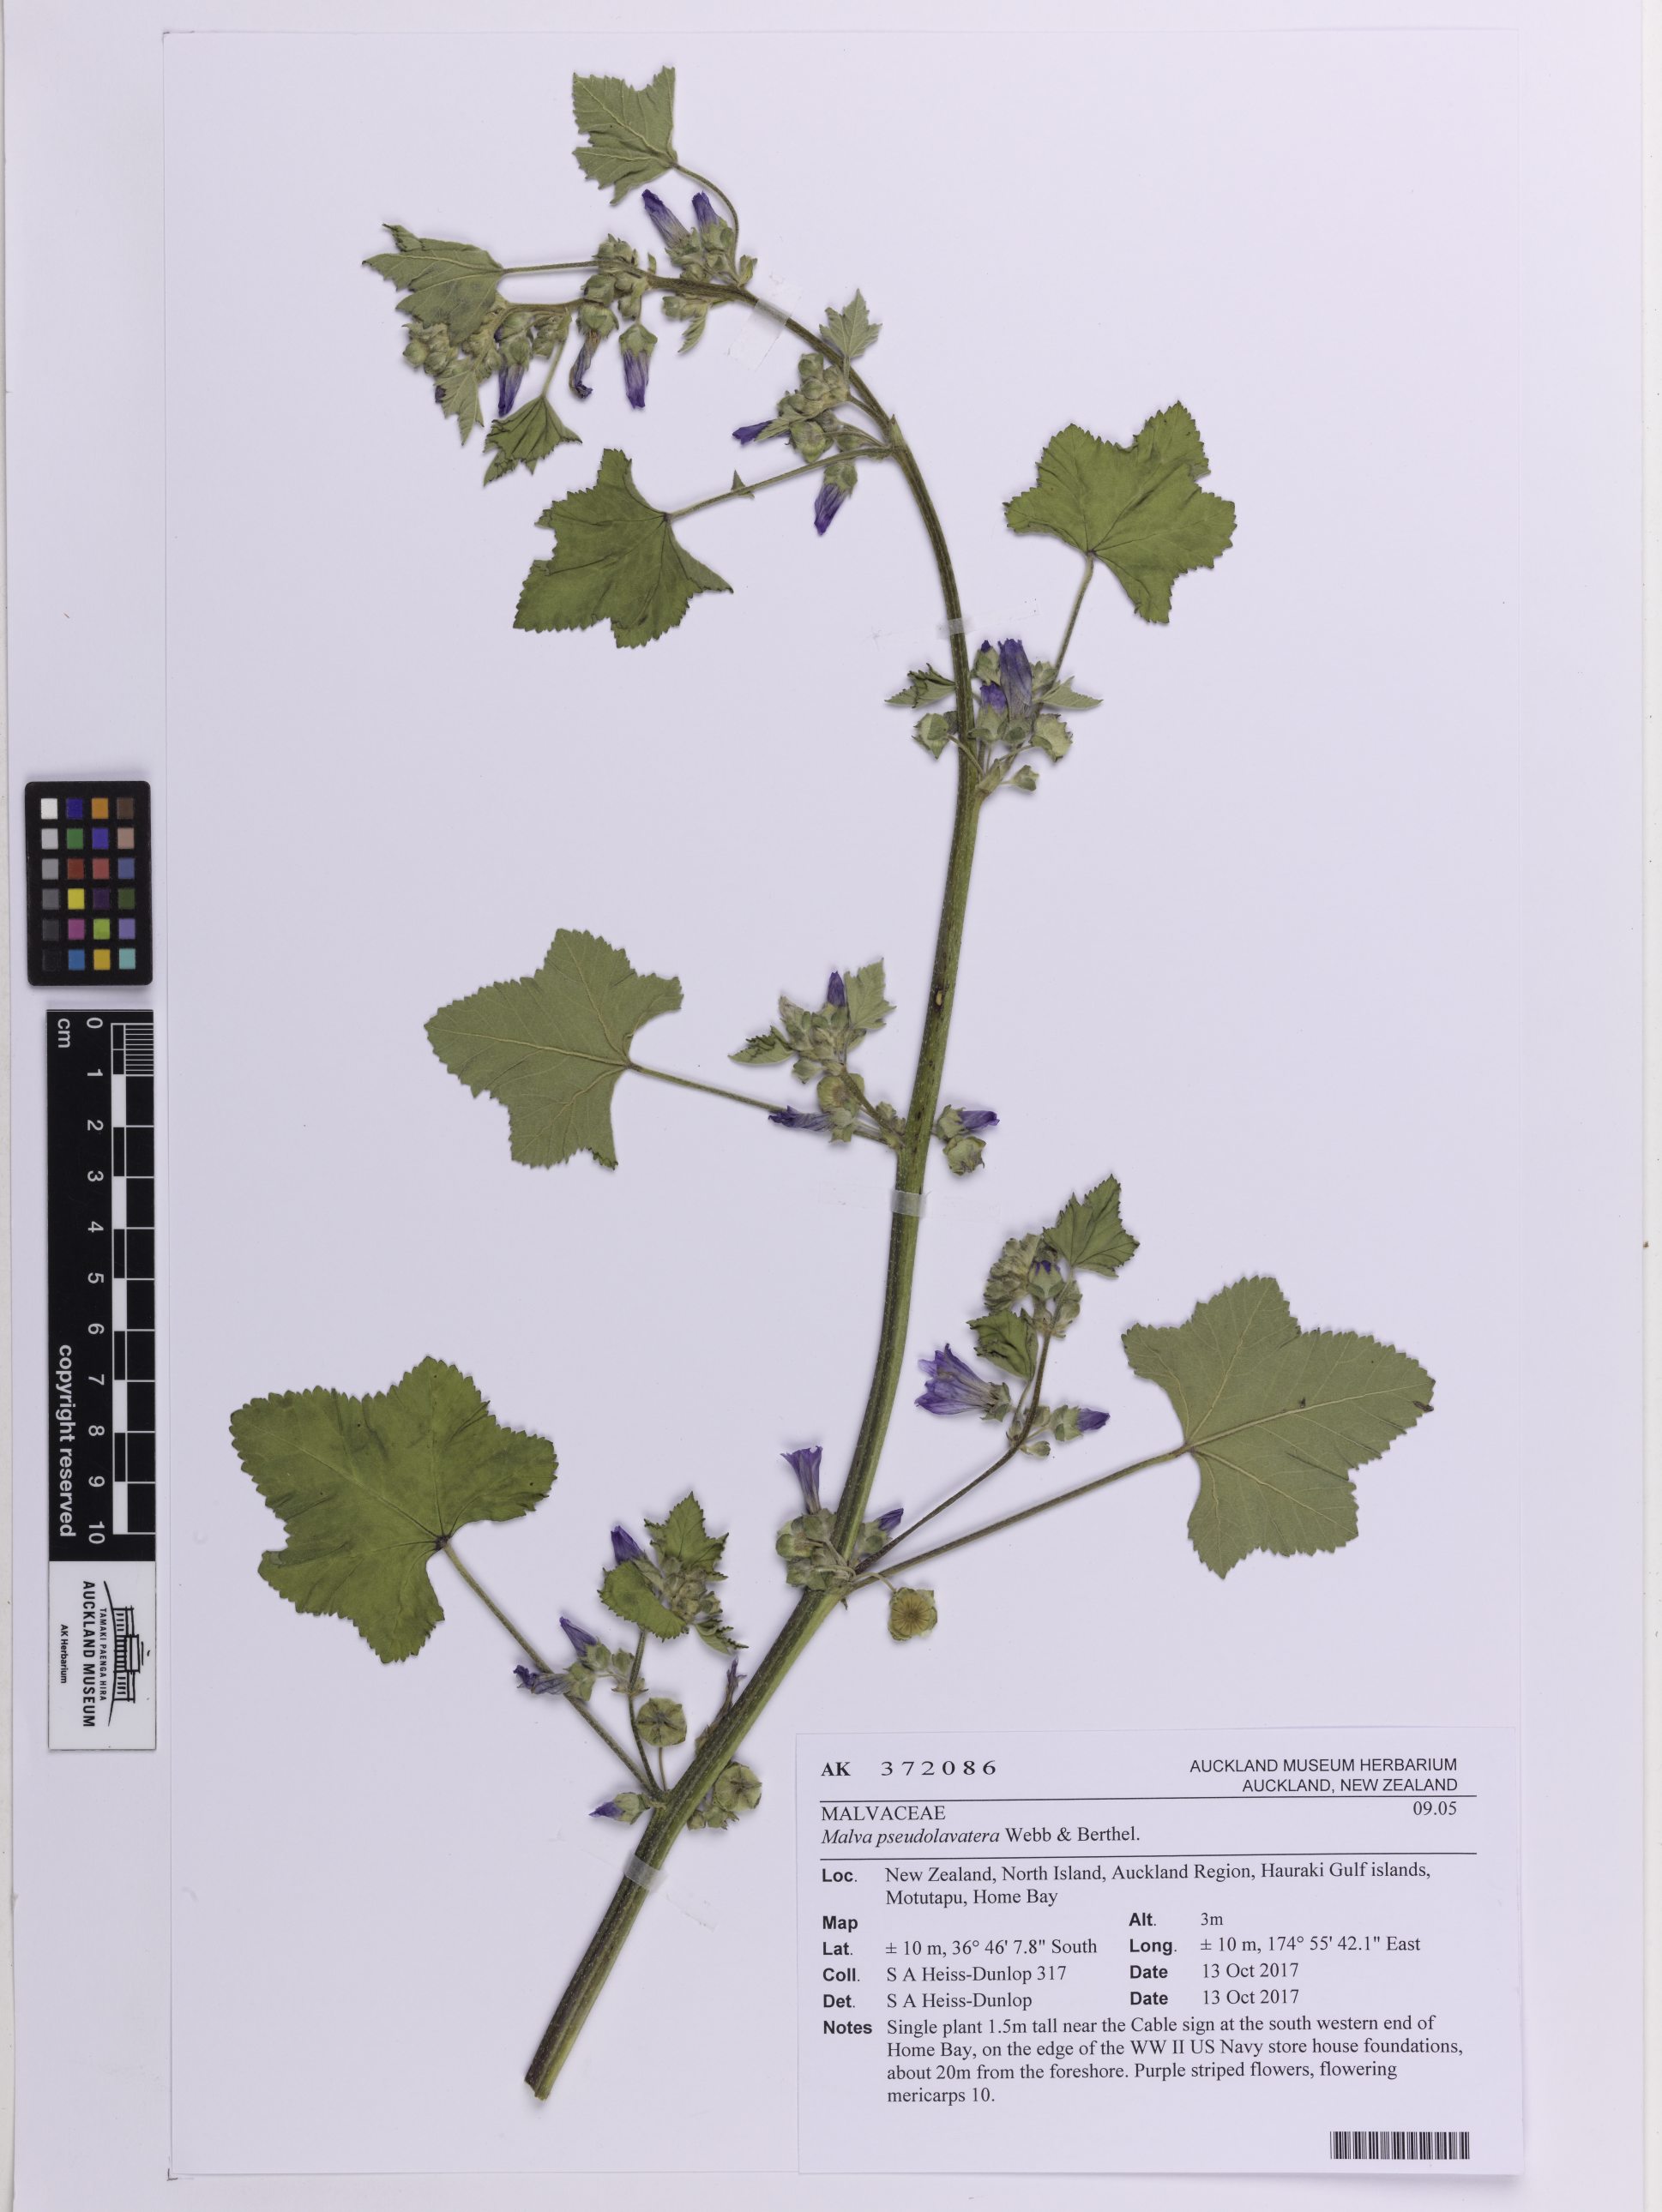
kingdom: Plantae
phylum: Tracheophyta
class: Magnoliopsida
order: Malvales
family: Malvaceae
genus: Malva
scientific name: Malva multiflora
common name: Cheeseweed
